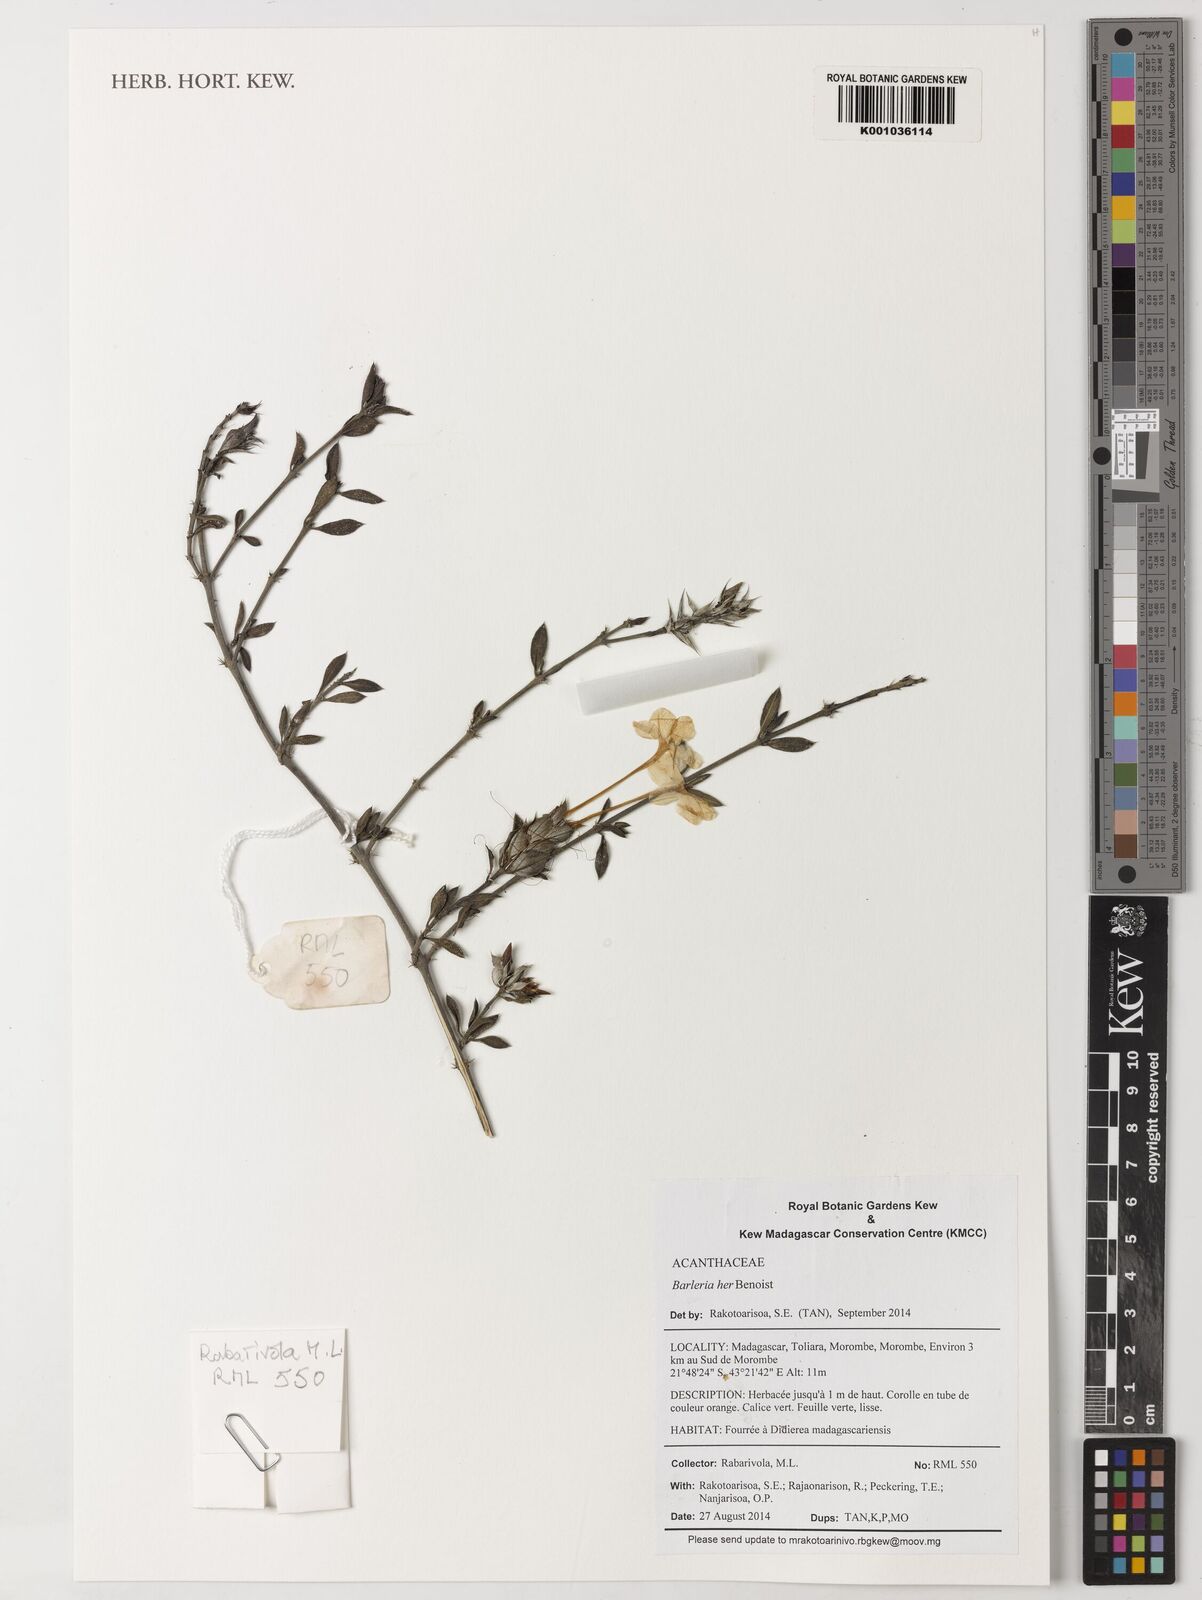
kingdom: Plantae
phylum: Tracheophyta
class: Magnoliopsida
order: Lamiales
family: Acanthaceae
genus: Barleria
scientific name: Barleria decaryi
